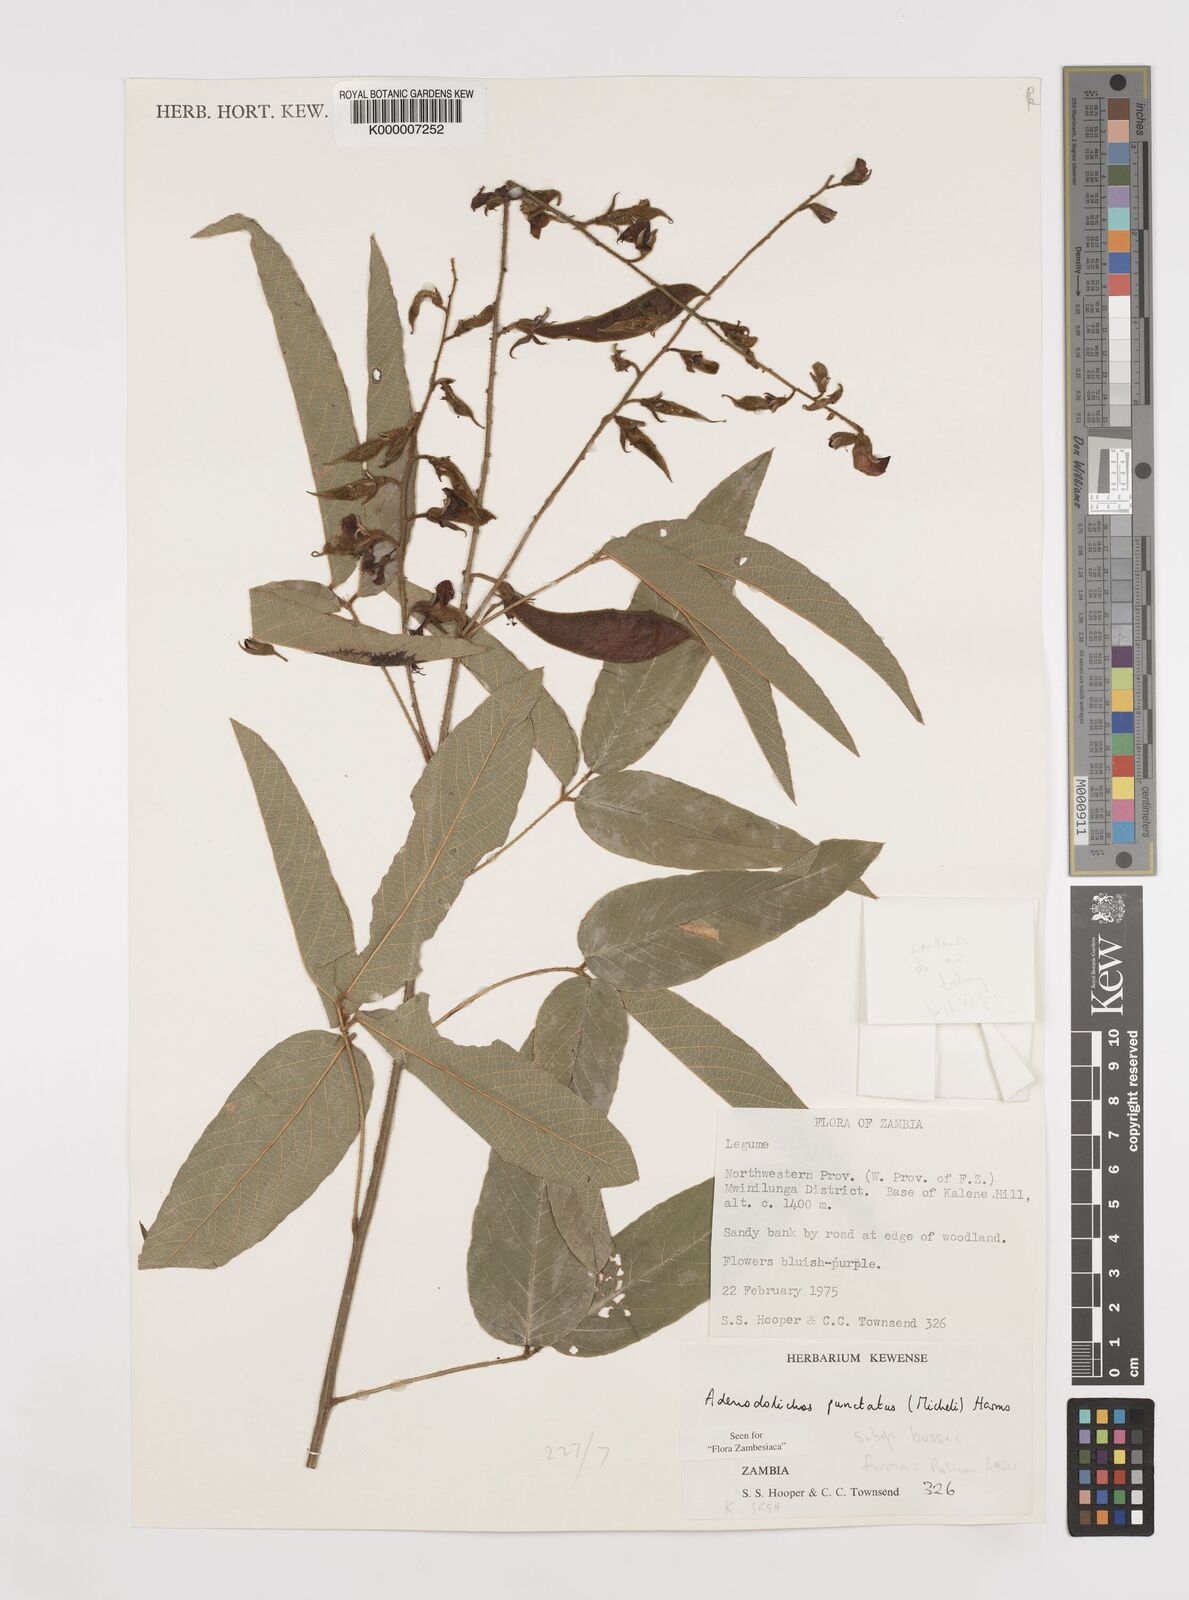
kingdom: Plantae
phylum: Tracheophyta
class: Magnoliopsida
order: Fabales
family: Fabaceae
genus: Adenodolichos
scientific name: Adenodolichos punctatus
